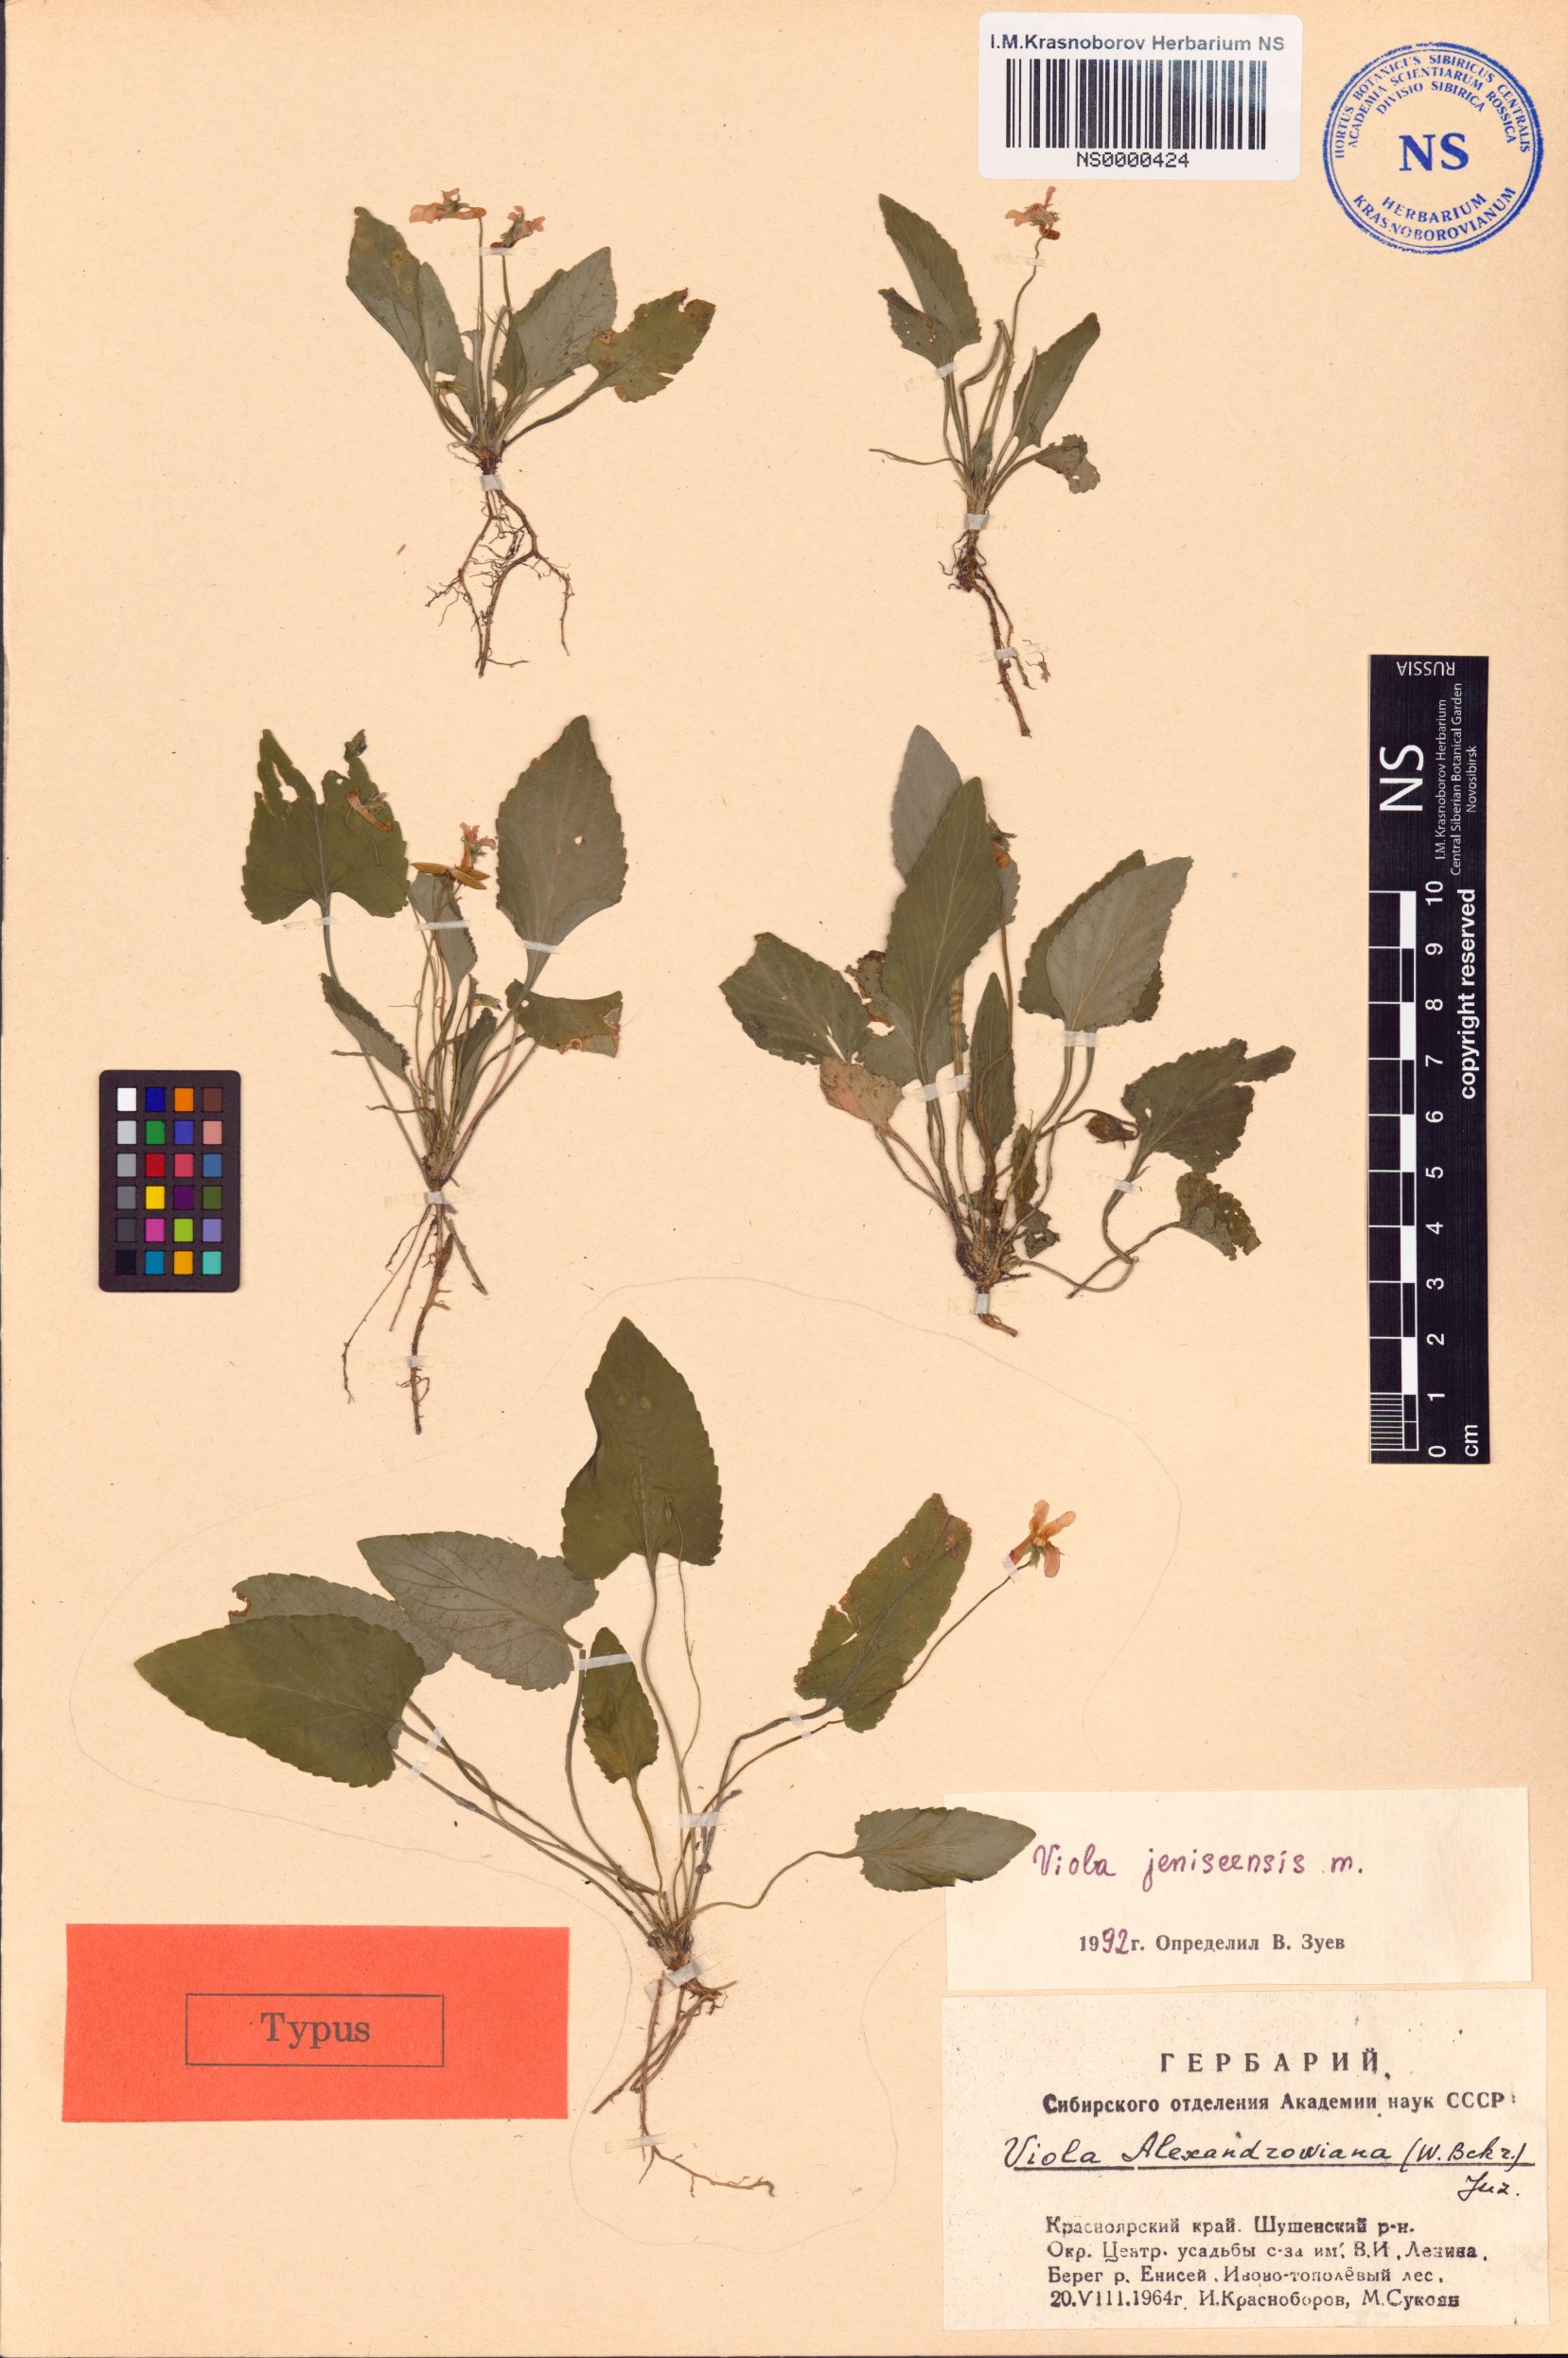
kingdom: Plantae
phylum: Tracheophyta
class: Magnoliopsida
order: Malpighiales
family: Violaceae
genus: Viola
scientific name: Viola prionantha
